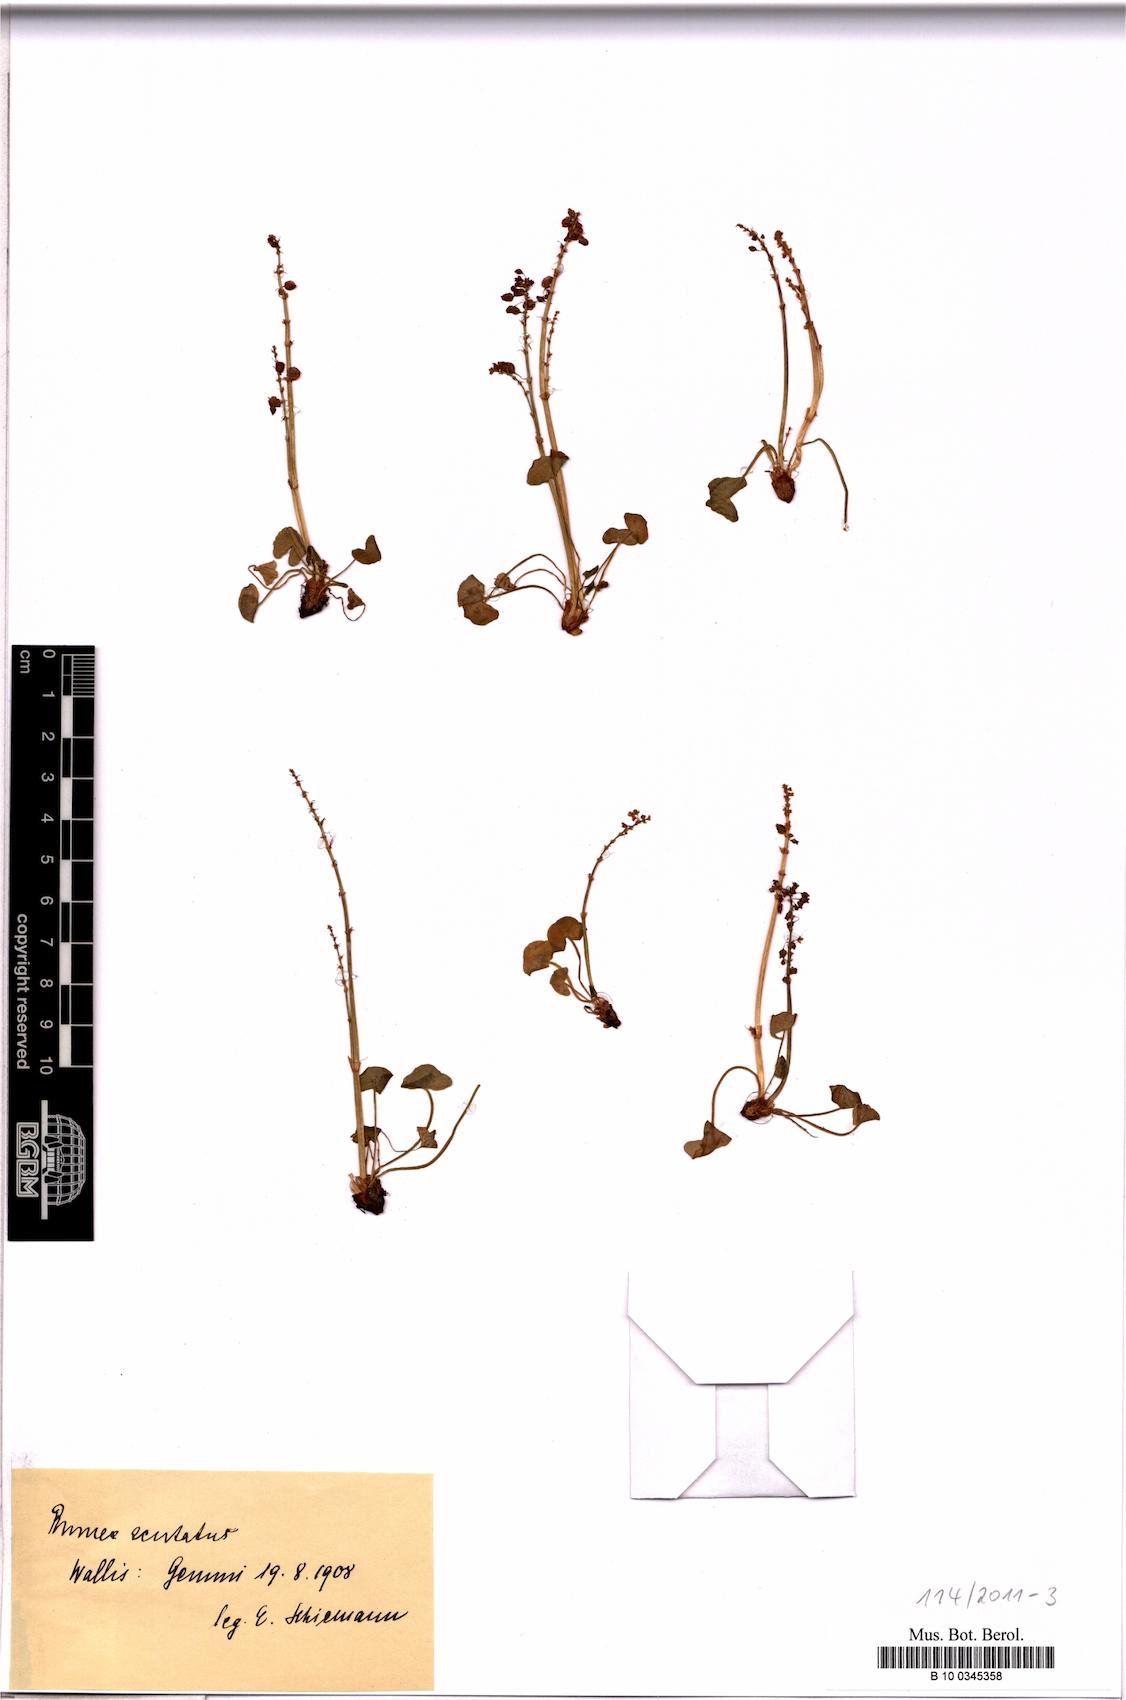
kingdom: Plantae
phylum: Tracheophyta
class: Magnoliopsida
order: Caryophyllales
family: Polygonaceae
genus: Oxyria
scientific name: Oxyria digyna
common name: Alpine mountain-sorrel
